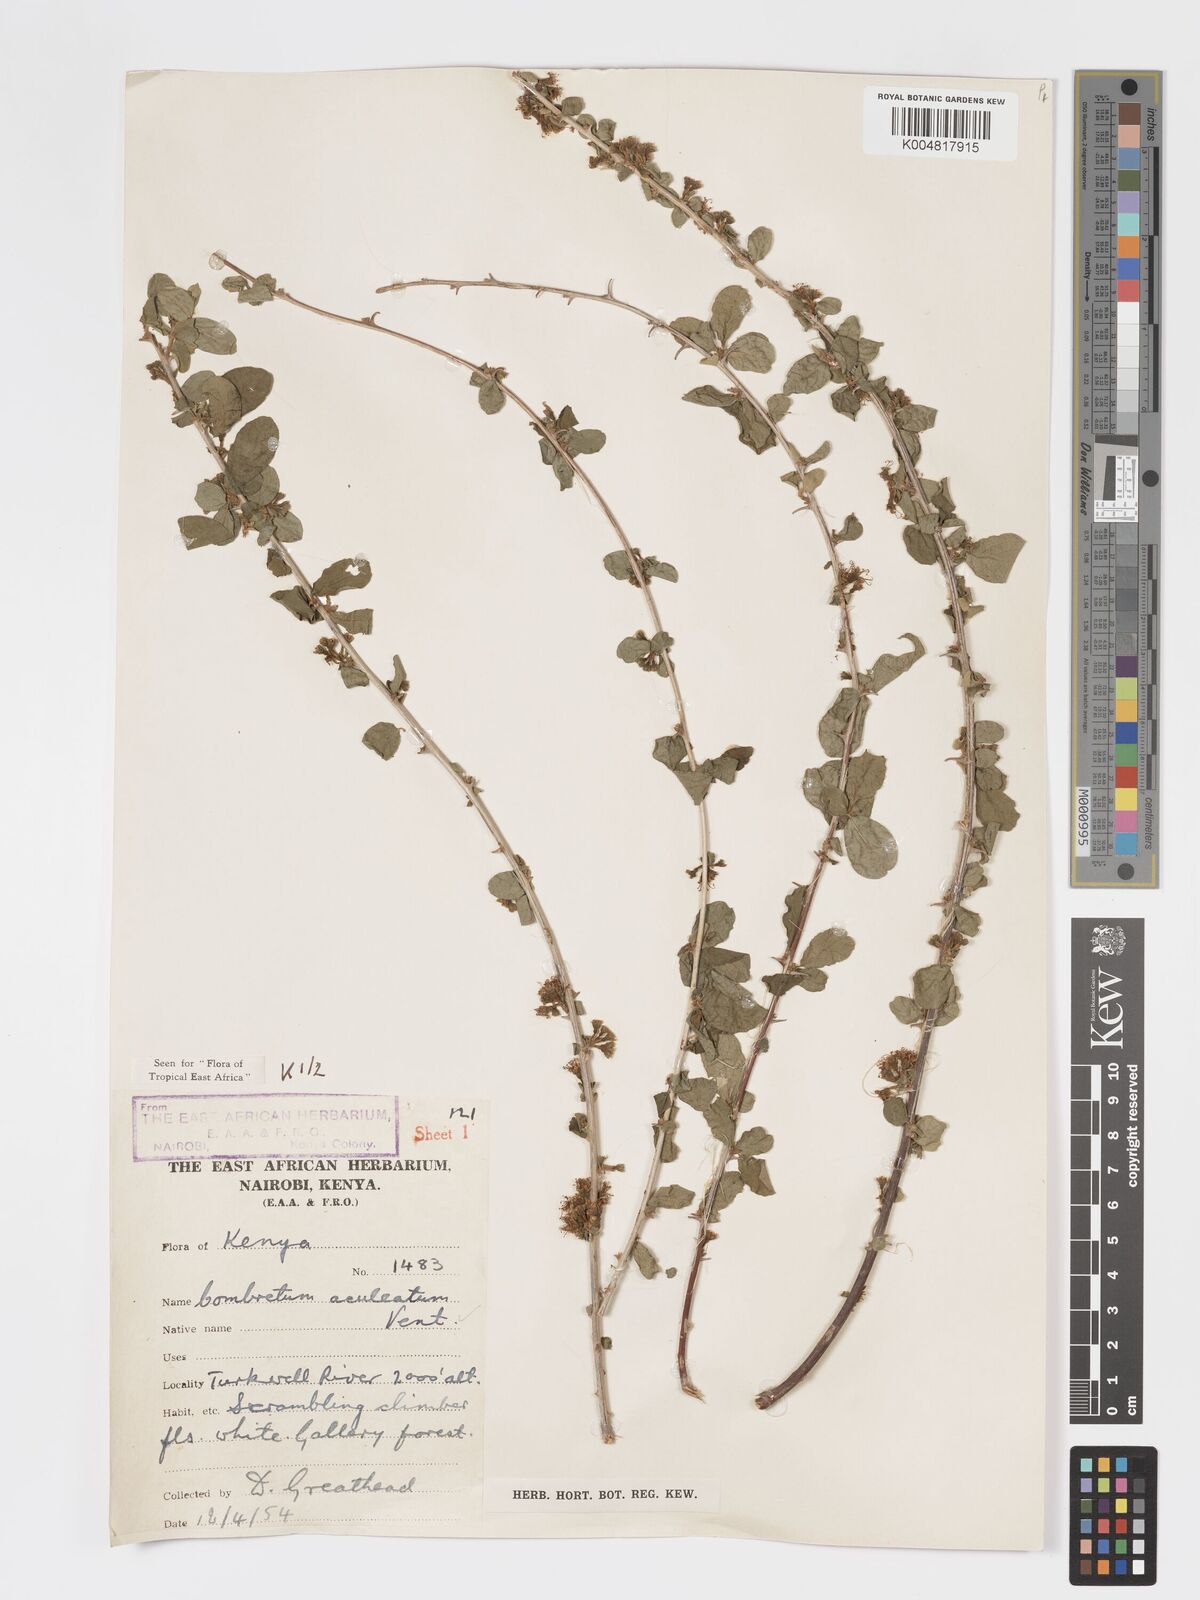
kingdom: Plantae
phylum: Tracheophyta
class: Magnoliopsida
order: Myrtales
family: Combretaceae
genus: Combretum
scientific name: Combretum aculeatum
